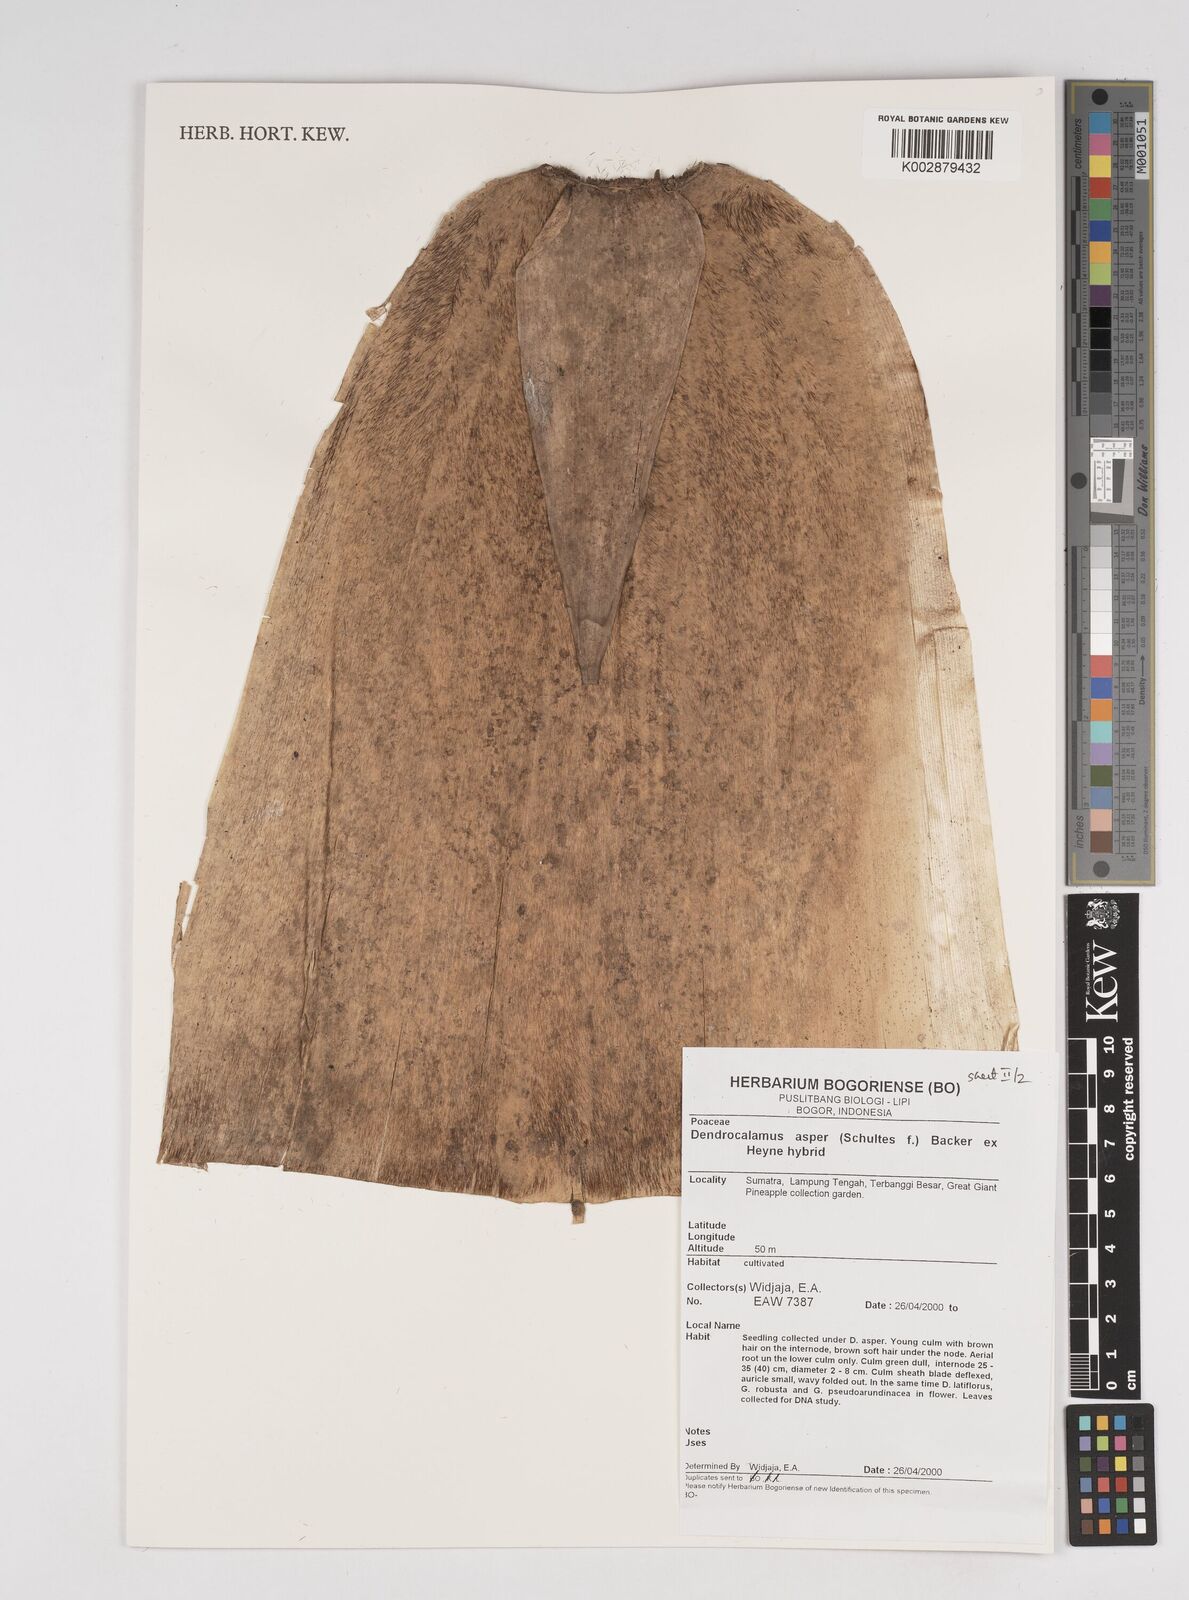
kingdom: Plantae
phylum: Tracheophyta
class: Liliopsida
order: Poales
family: Poaceae
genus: Dendrocalamus
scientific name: Dendrocalamus asper
